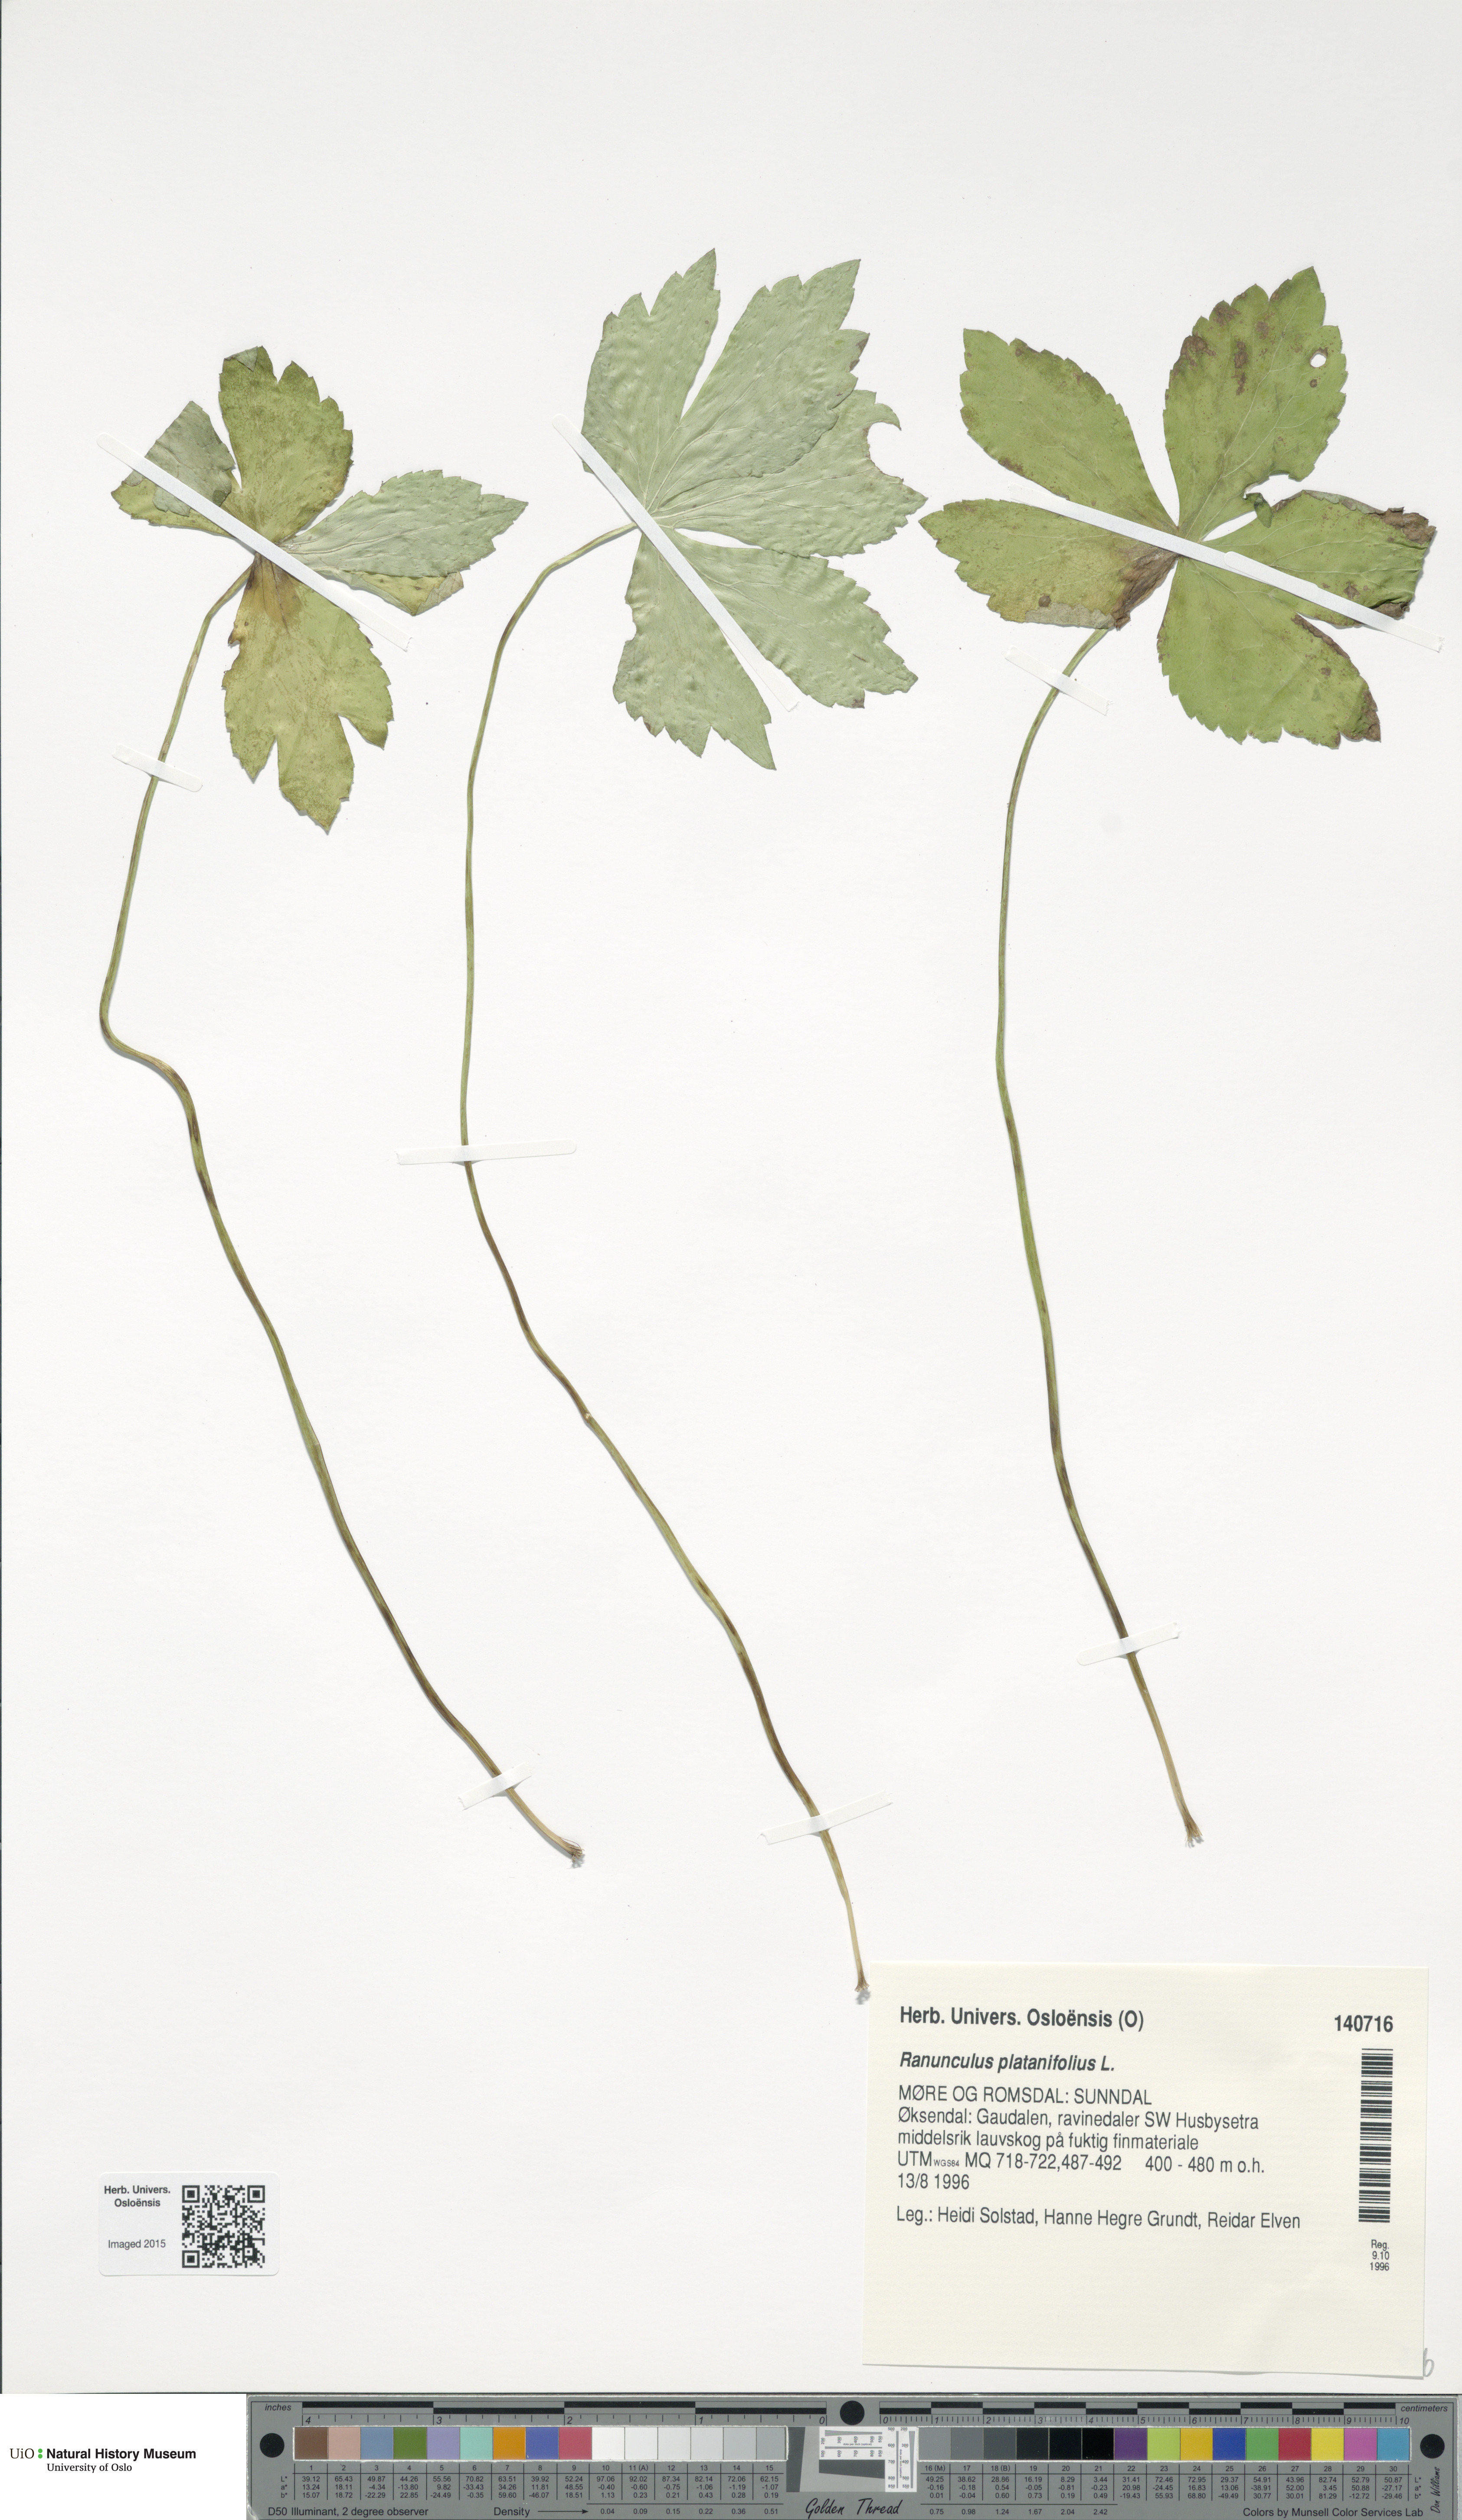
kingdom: Plantae
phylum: Tracheophyta
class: Magnoliopsida
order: Ranunculales
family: Ranunculaceae
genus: Ranunculus
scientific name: Ranunculus platanifolius
